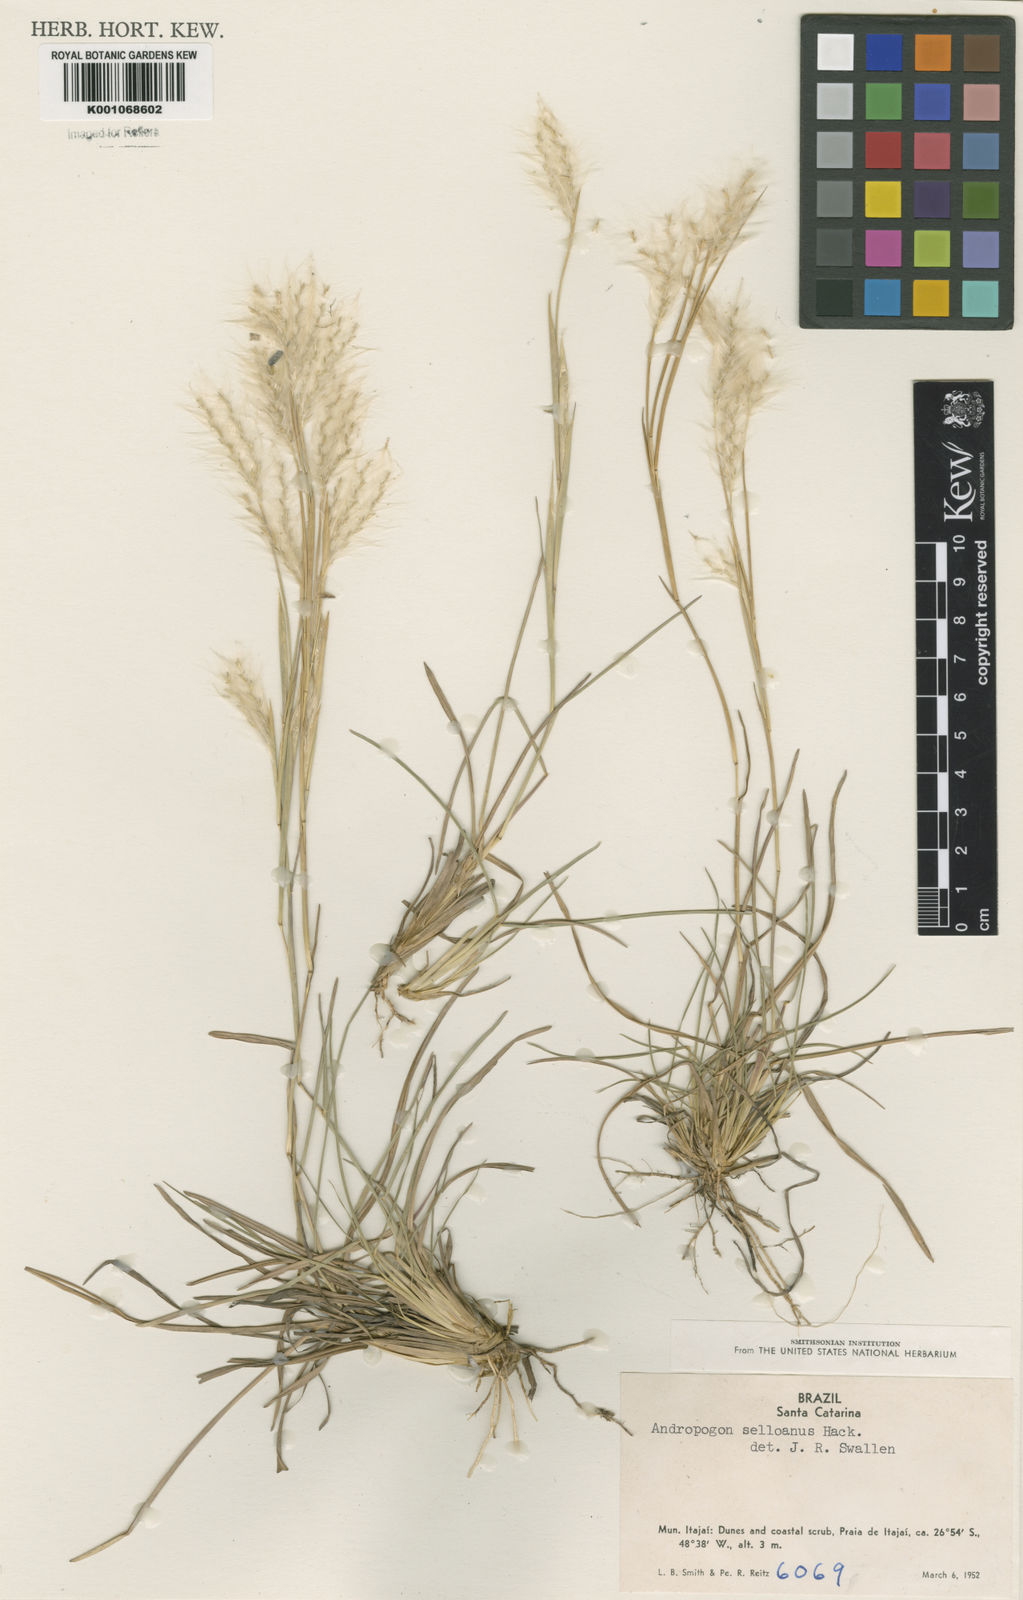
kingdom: Plantae
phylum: Tracheophyta
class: Liliopsida
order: Poales
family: Poaceae
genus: Andropogon
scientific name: Andropogon selloanus
